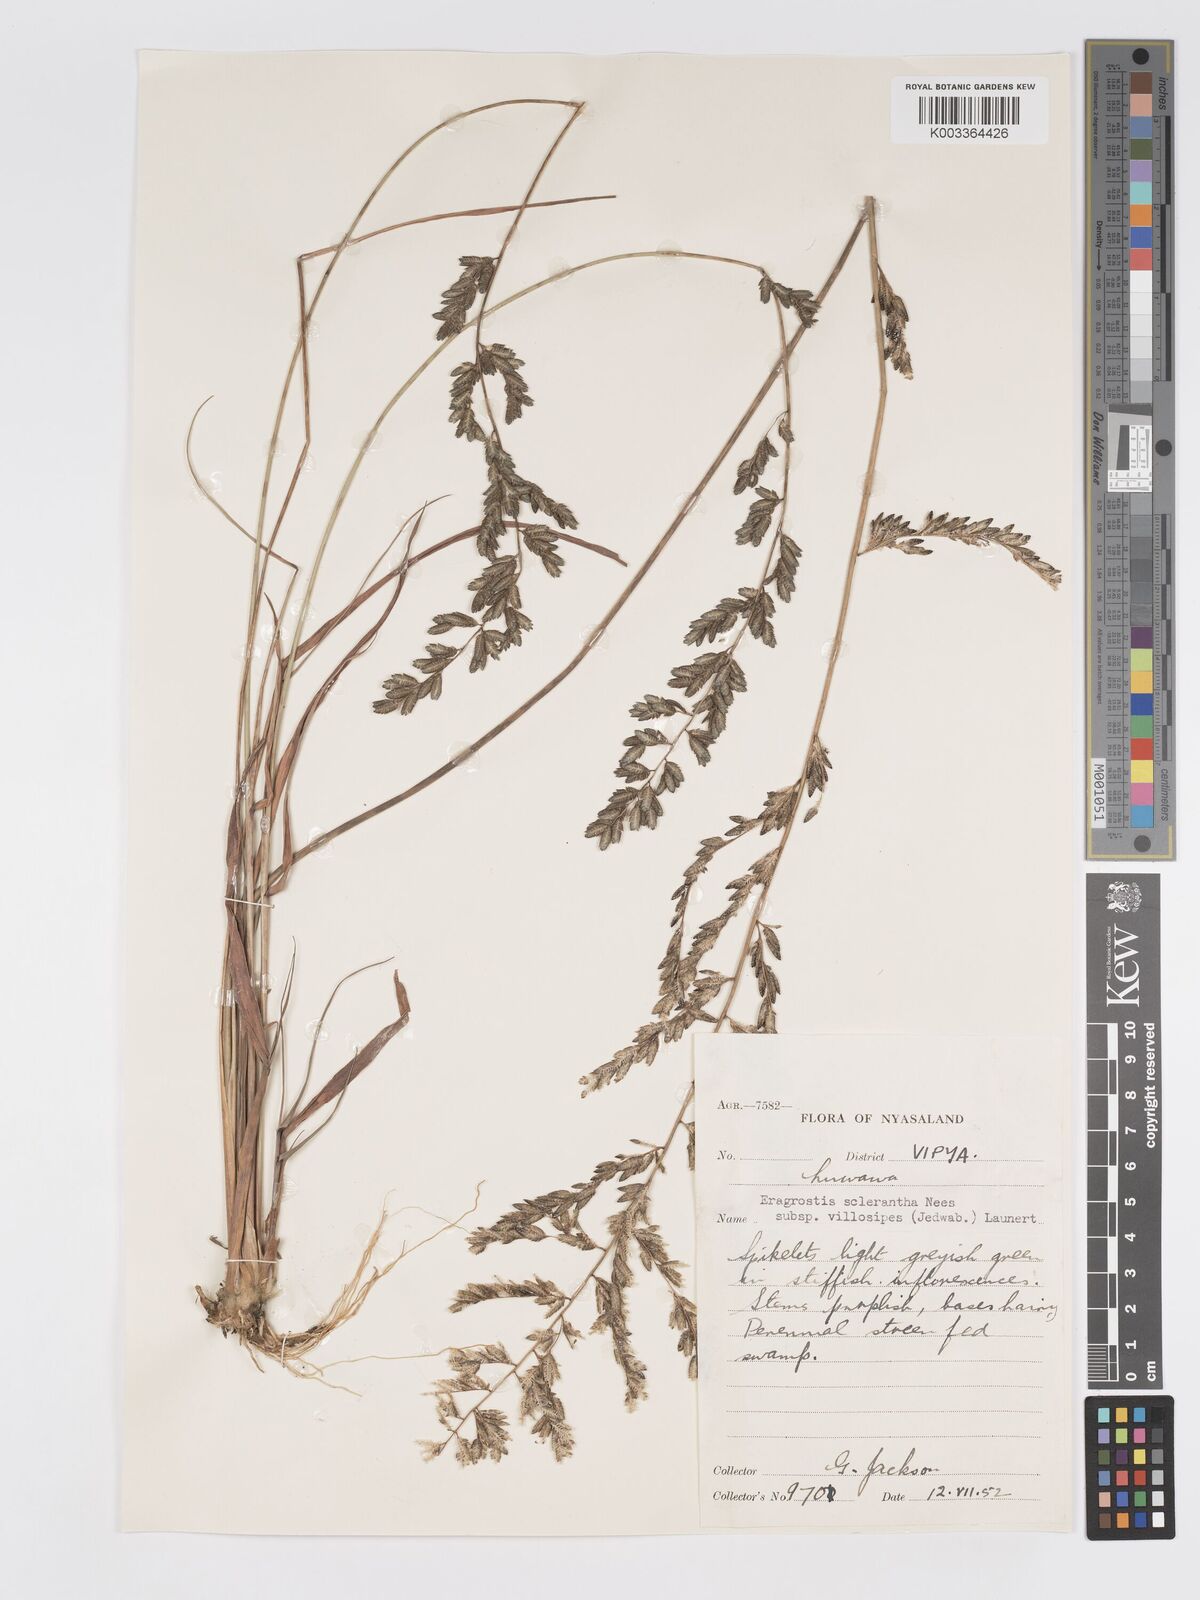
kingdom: Plantae
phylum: Tracheophyta
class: Liliopsida
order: Poales
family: Poaceae
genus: Eragrostis
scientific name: Eragrostis sclerantha
